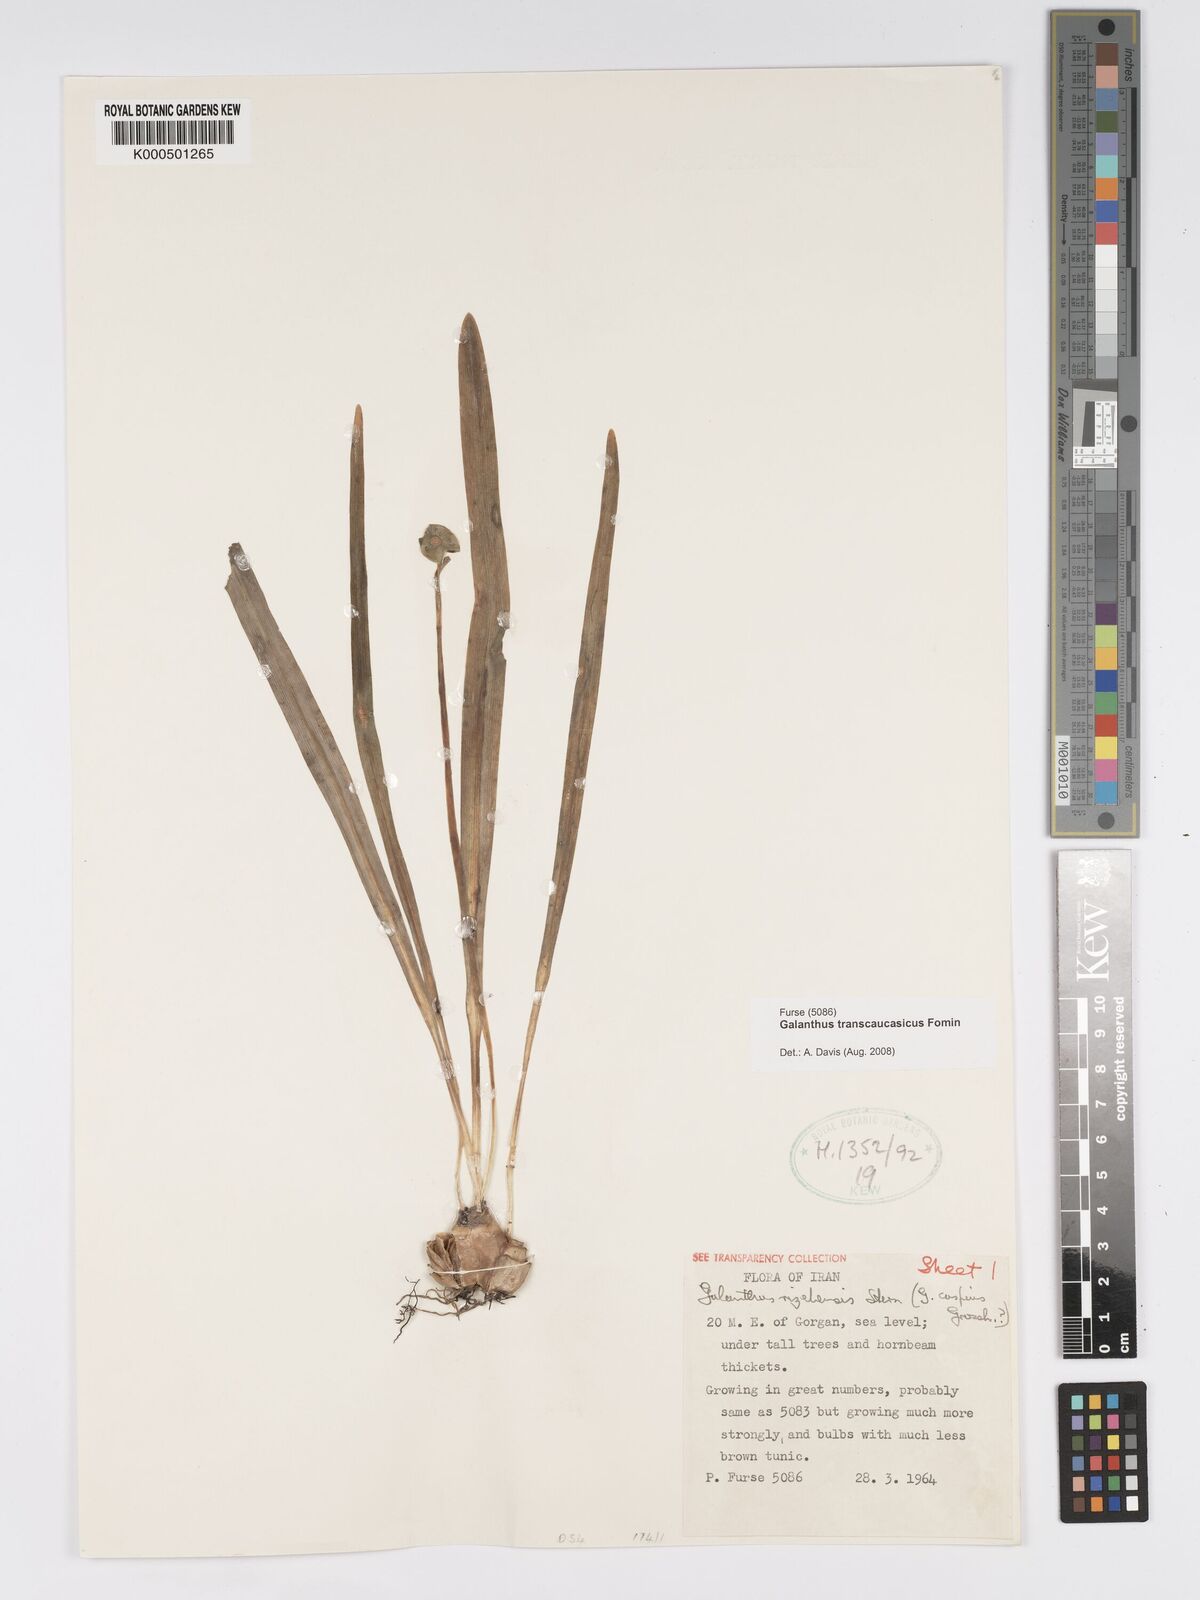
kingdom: Plantae
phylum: Tracheophyta
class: Liliopsida
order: Asparagales
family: Amaryllidaceae
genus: Galanthus
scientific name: Galanthus transcaucasicus
